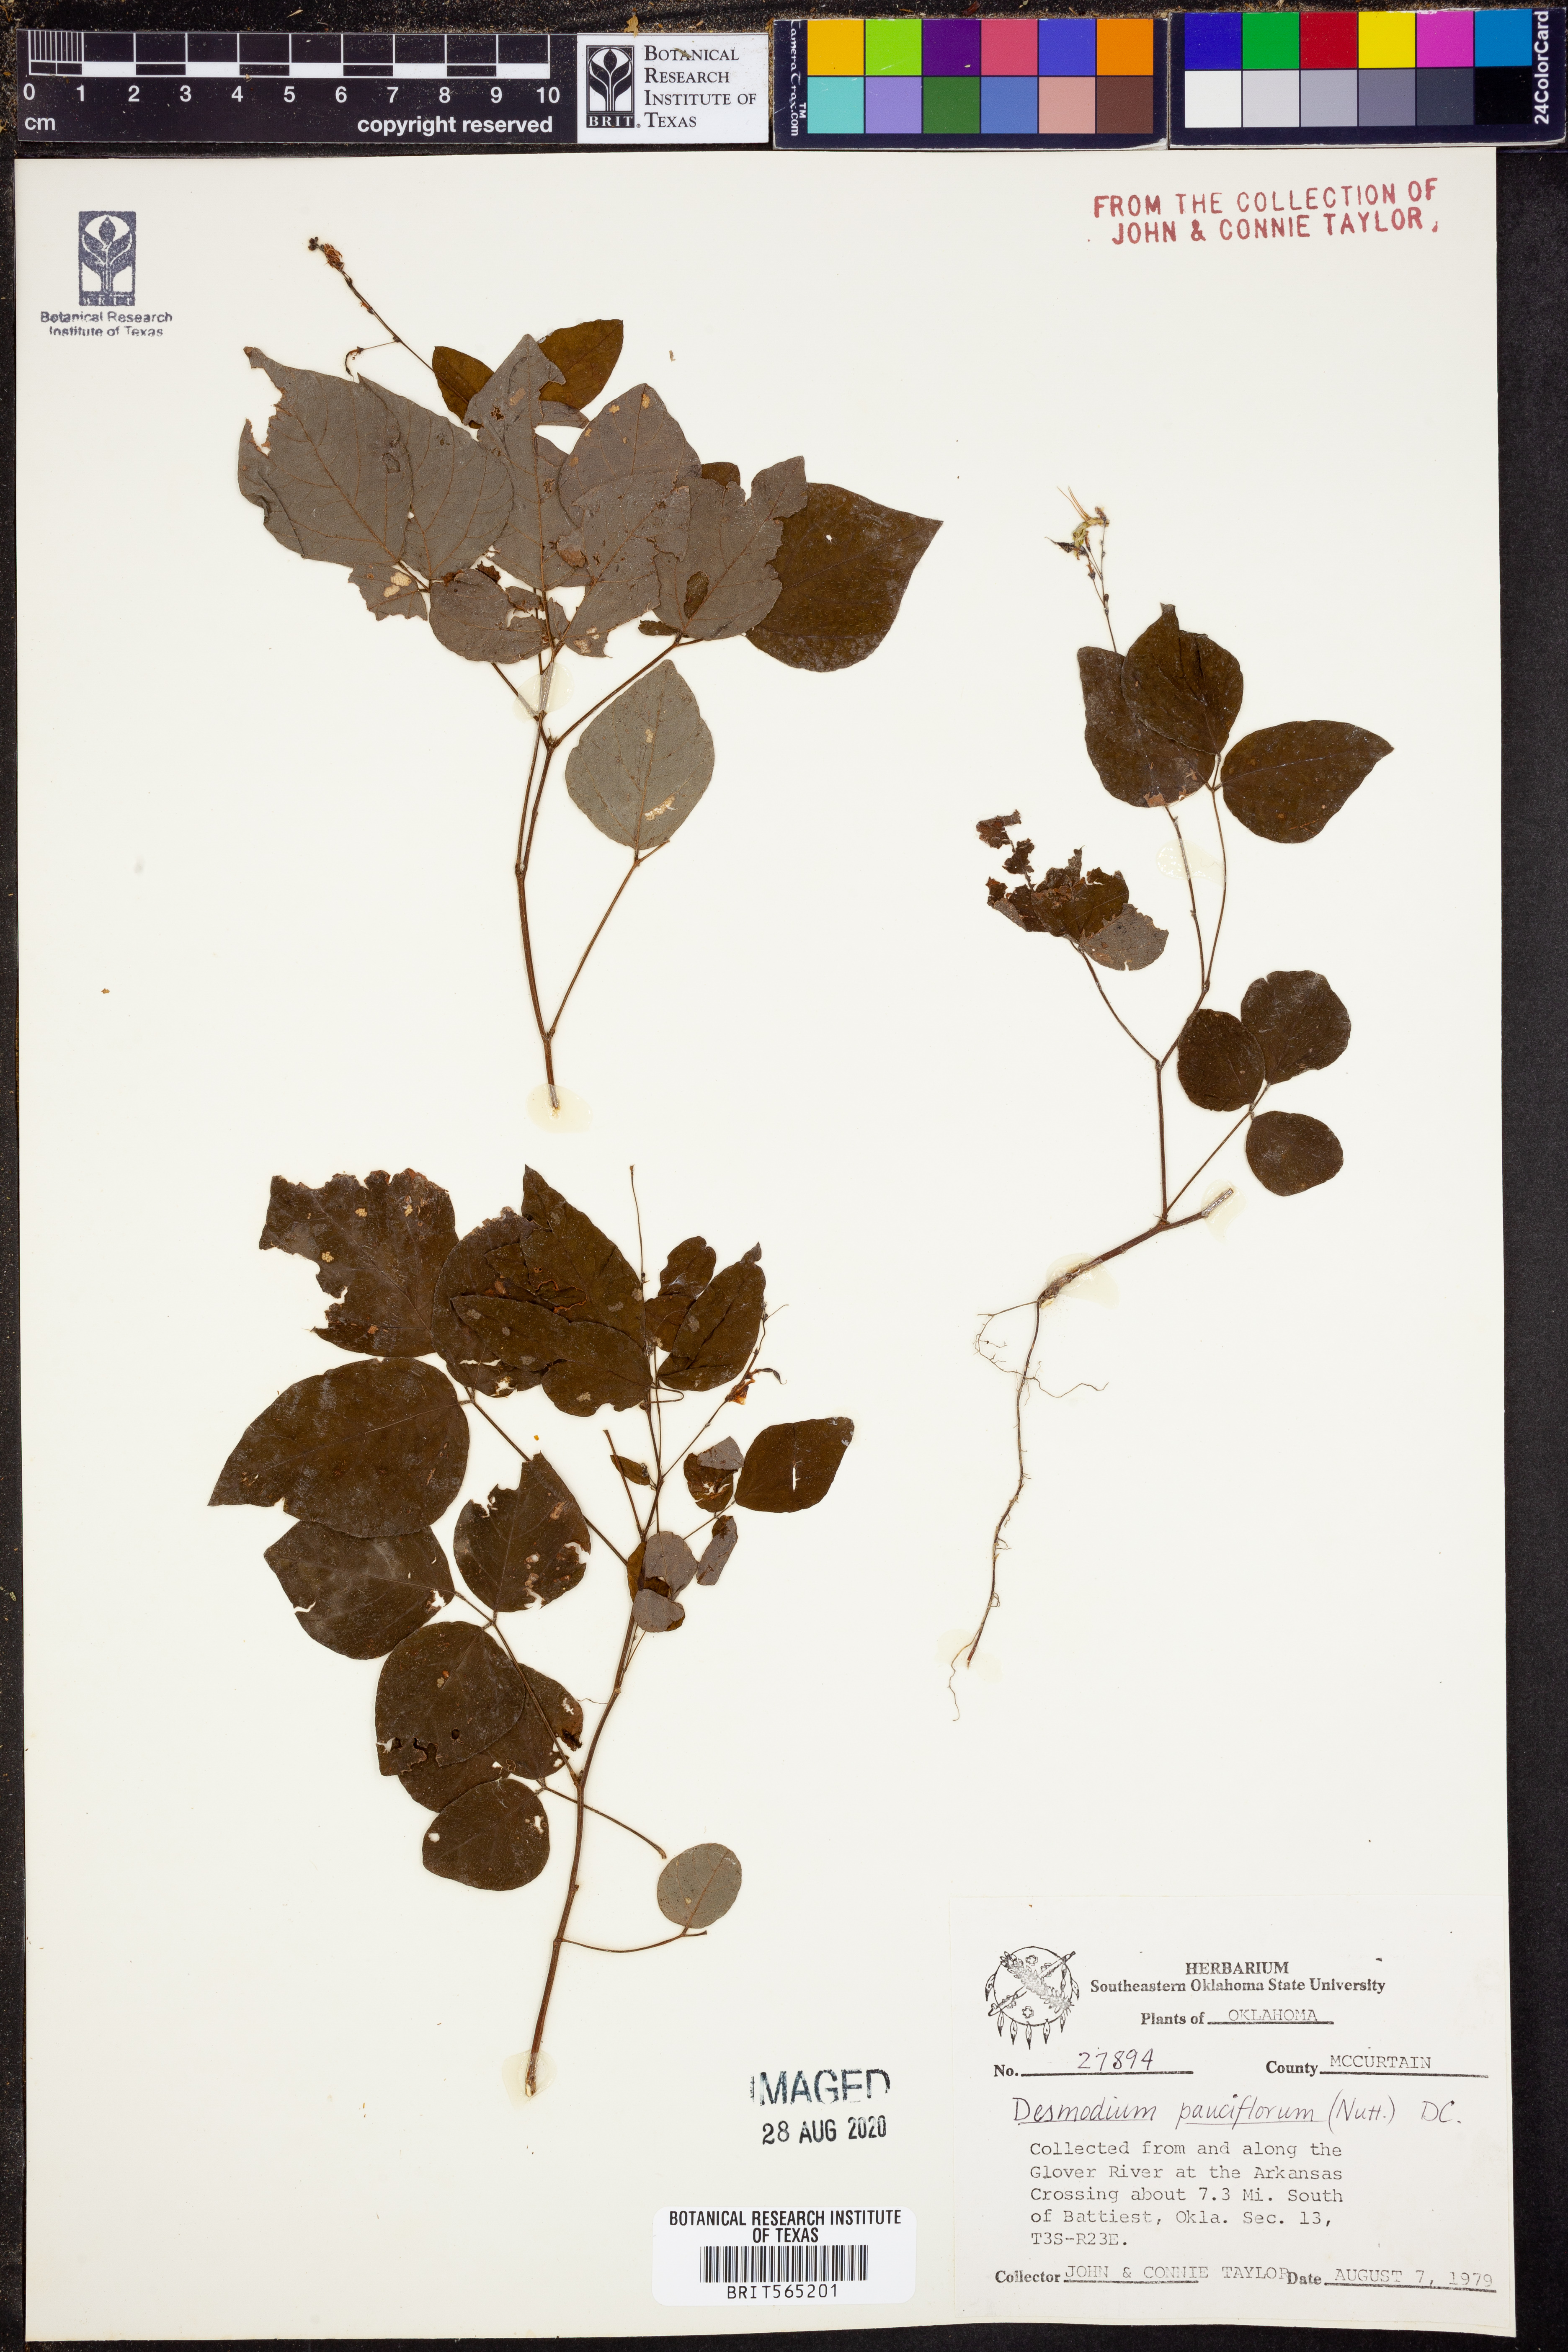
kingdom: Plantae
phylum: Tracheophyta
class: Magnoliopsida
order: Fabales
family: Fabaceae
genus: Hylodesmum
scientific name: Hylodesmum pauciflorum
